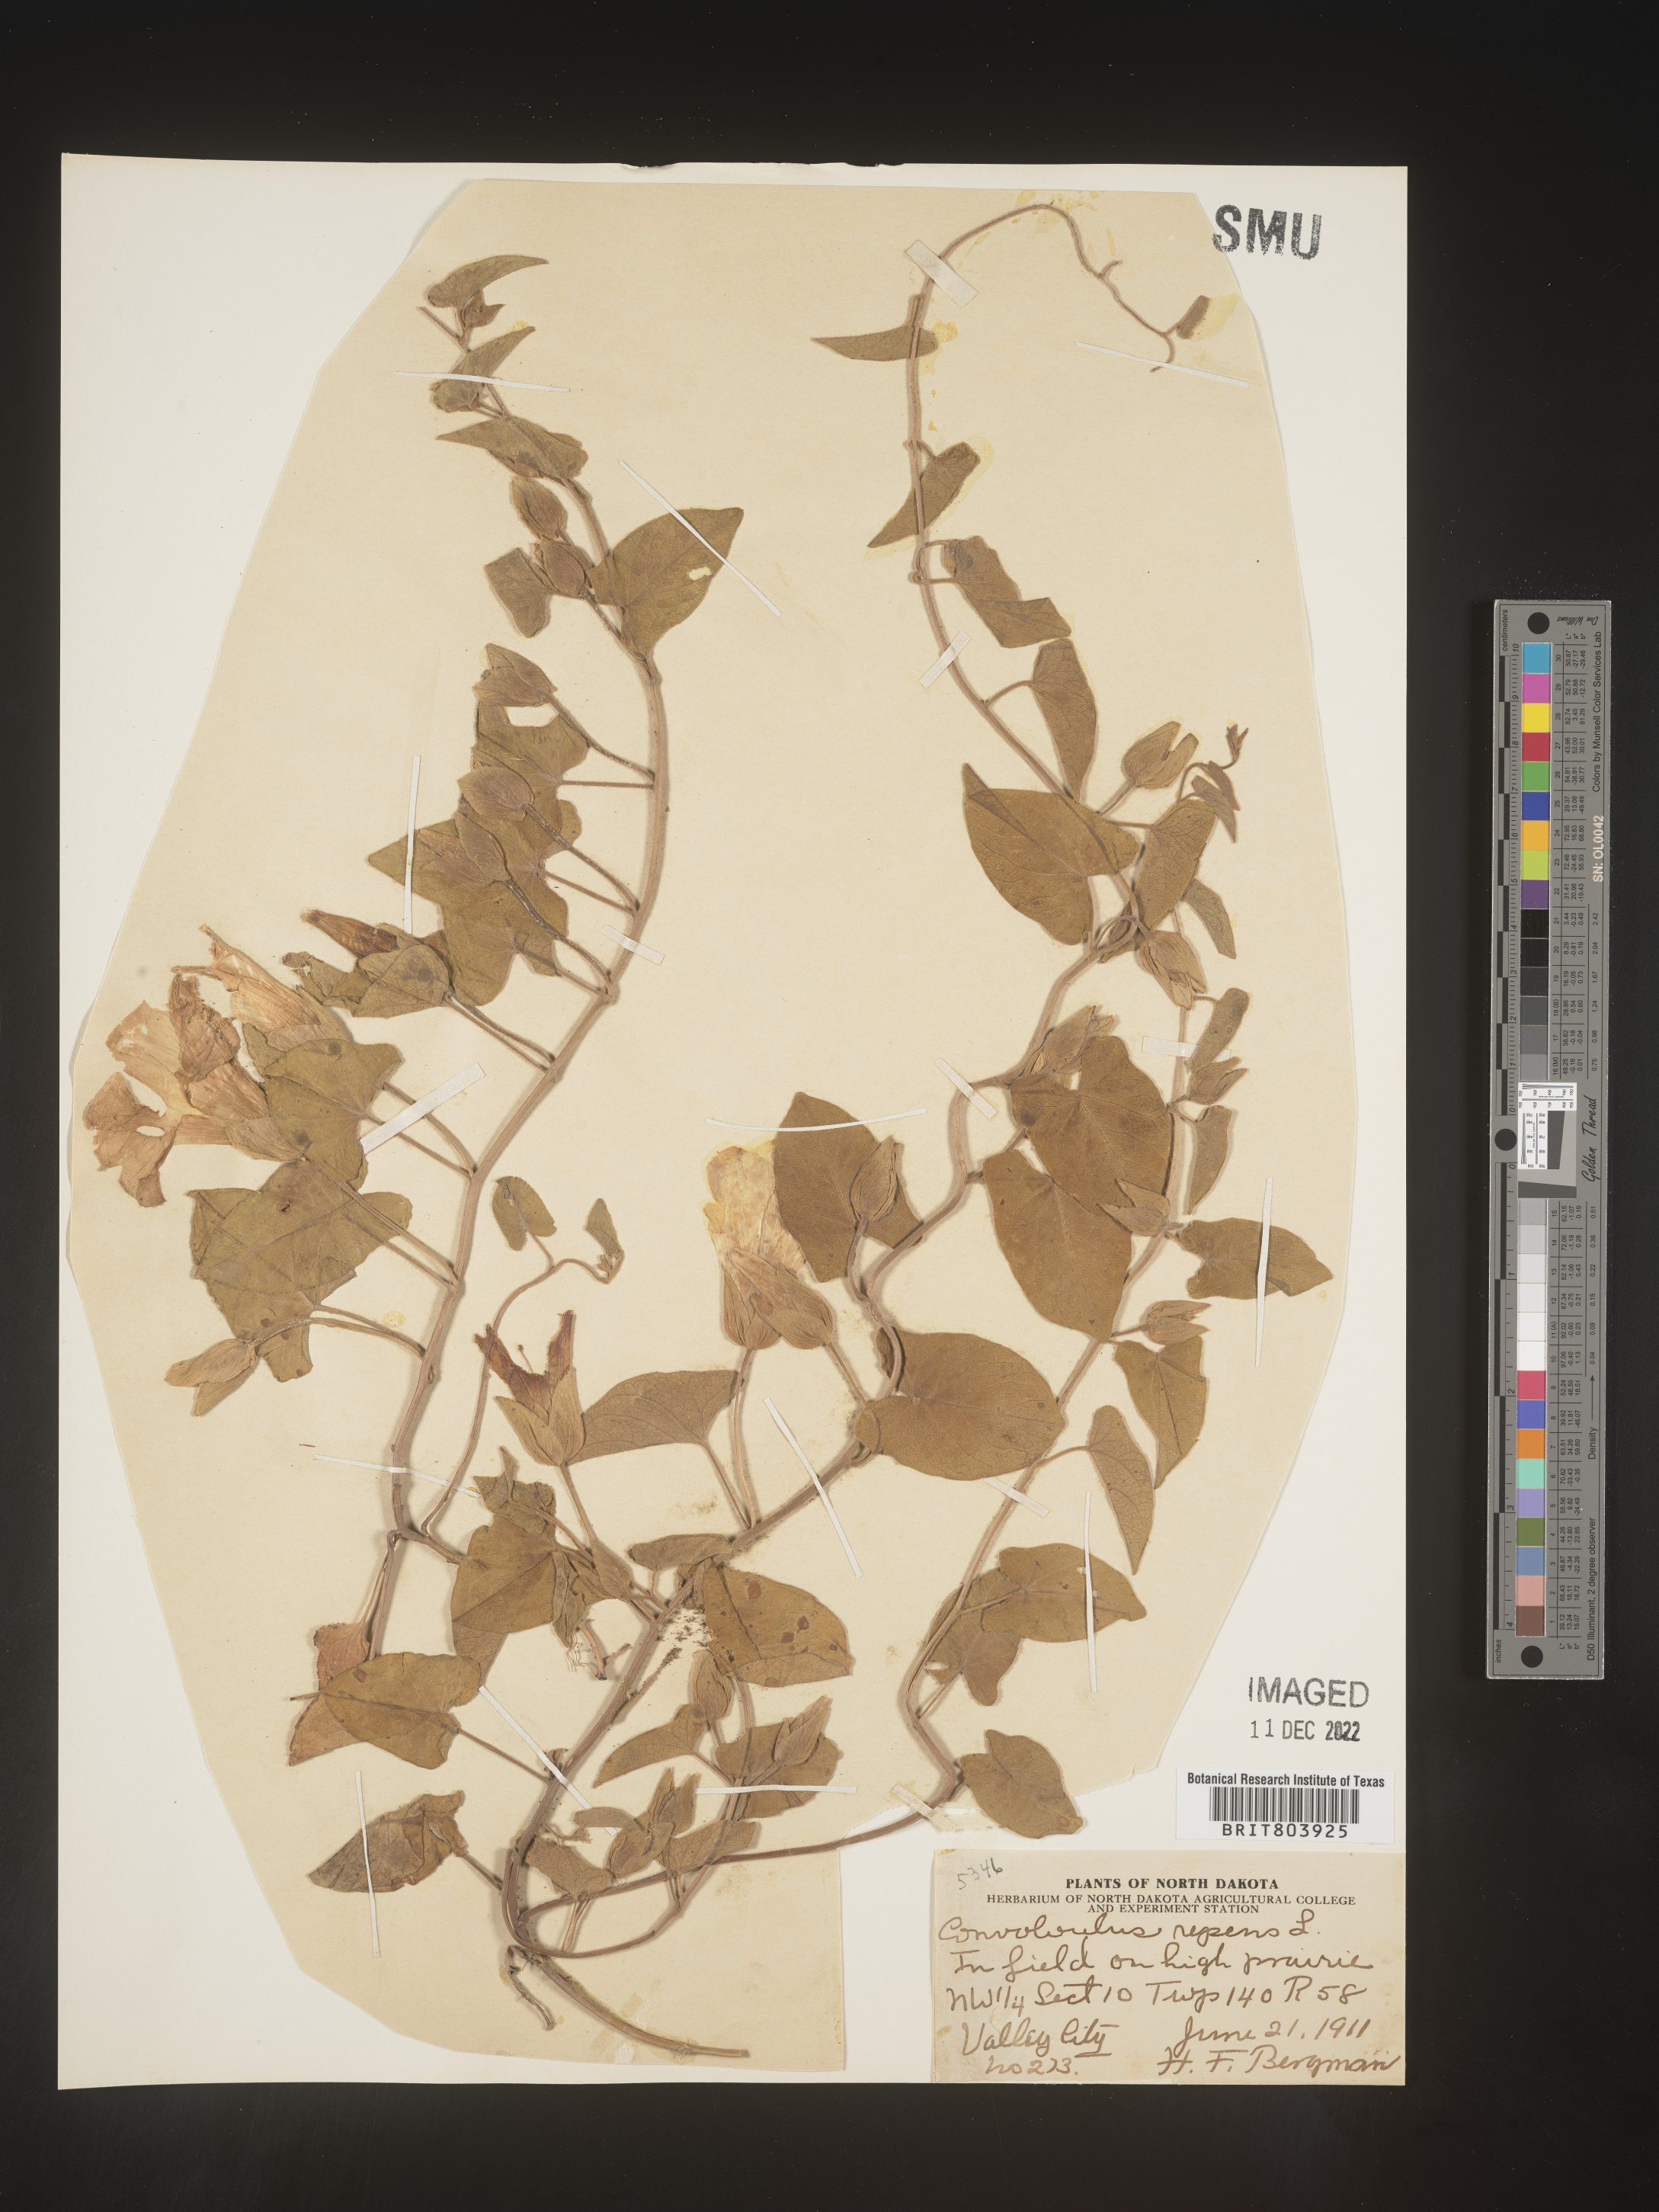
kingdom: Plantae
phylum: Tracheophyta
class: Magnoliopsida
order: Solanales
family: Convolvulaceae
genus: Calystegia
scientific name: Calystegia sepium
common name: Hedge bindweed
